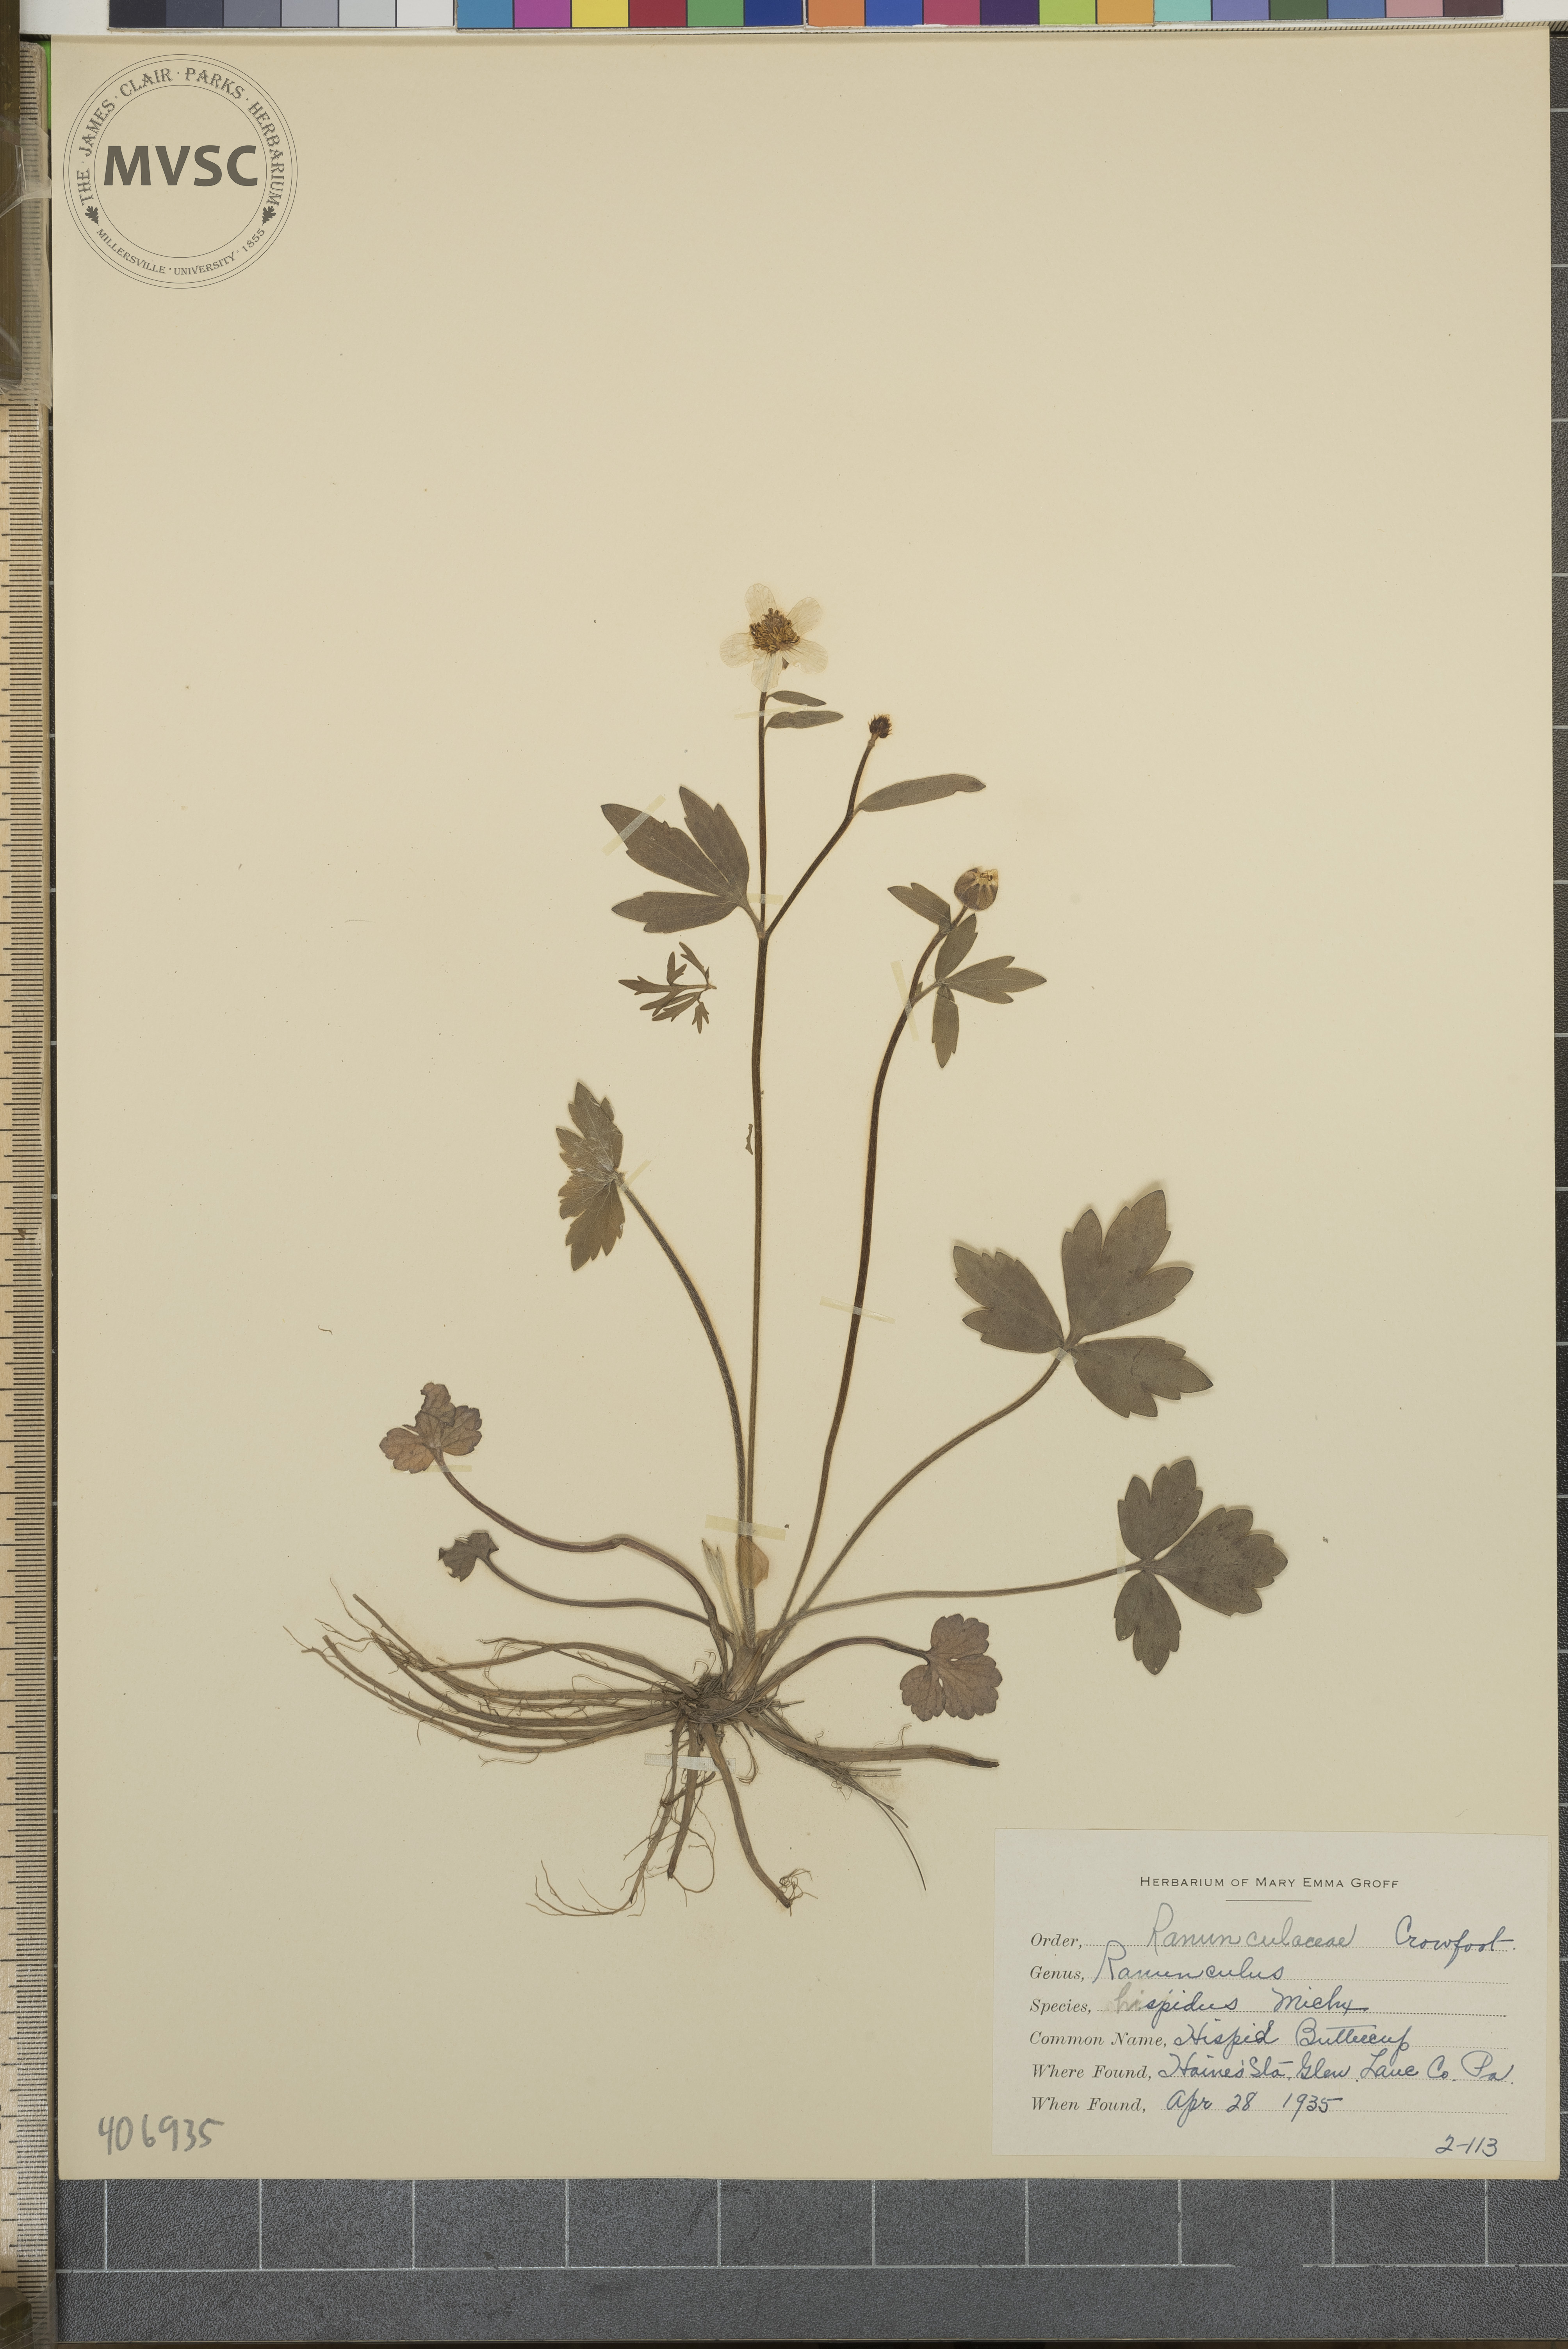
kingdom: Plantae
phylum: Tracheophyta
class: Magnoliopsida
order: Ranunculales
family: Ranunculaceae
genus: Ranunculus
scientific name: Ranunculus hispidus
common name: Hispid Buttercup
